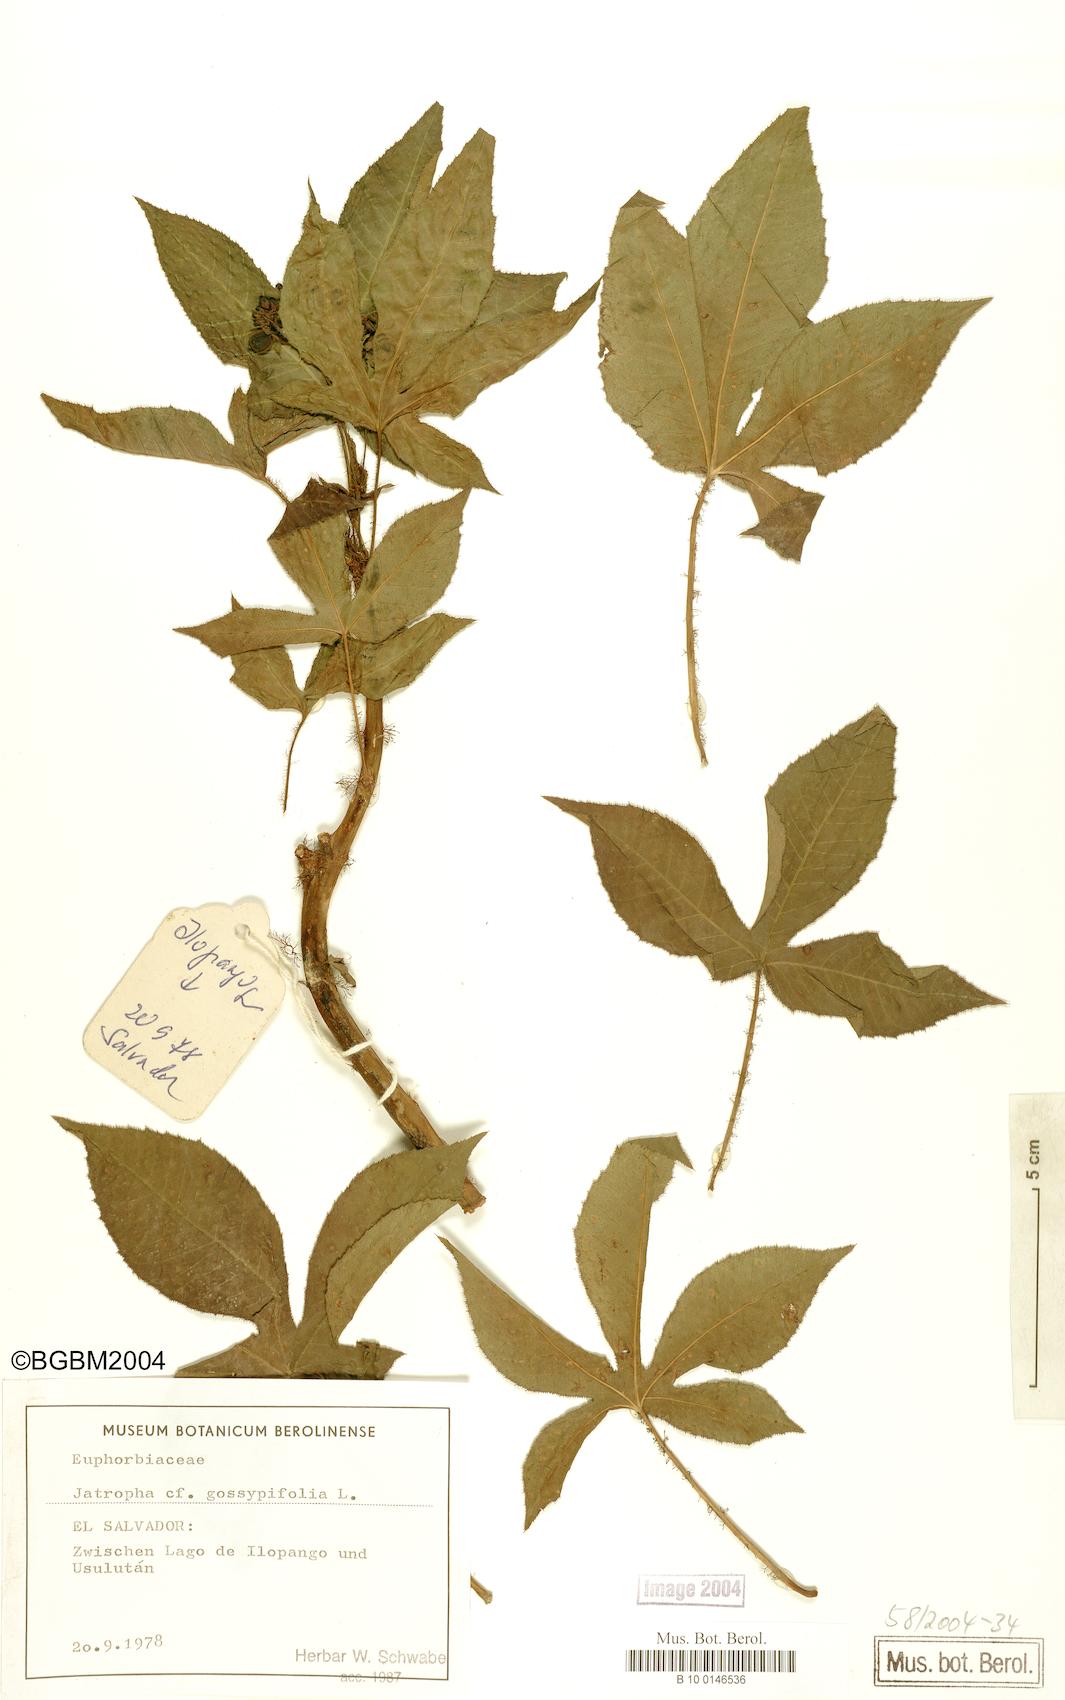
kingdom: Plantae
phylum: Tracheophyta
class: Magnoliopsida
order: Malpighiales
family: Euphorbiaceae
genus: Jatropha
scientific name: Jatropha gossypiifolia
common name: Bellyache bush
